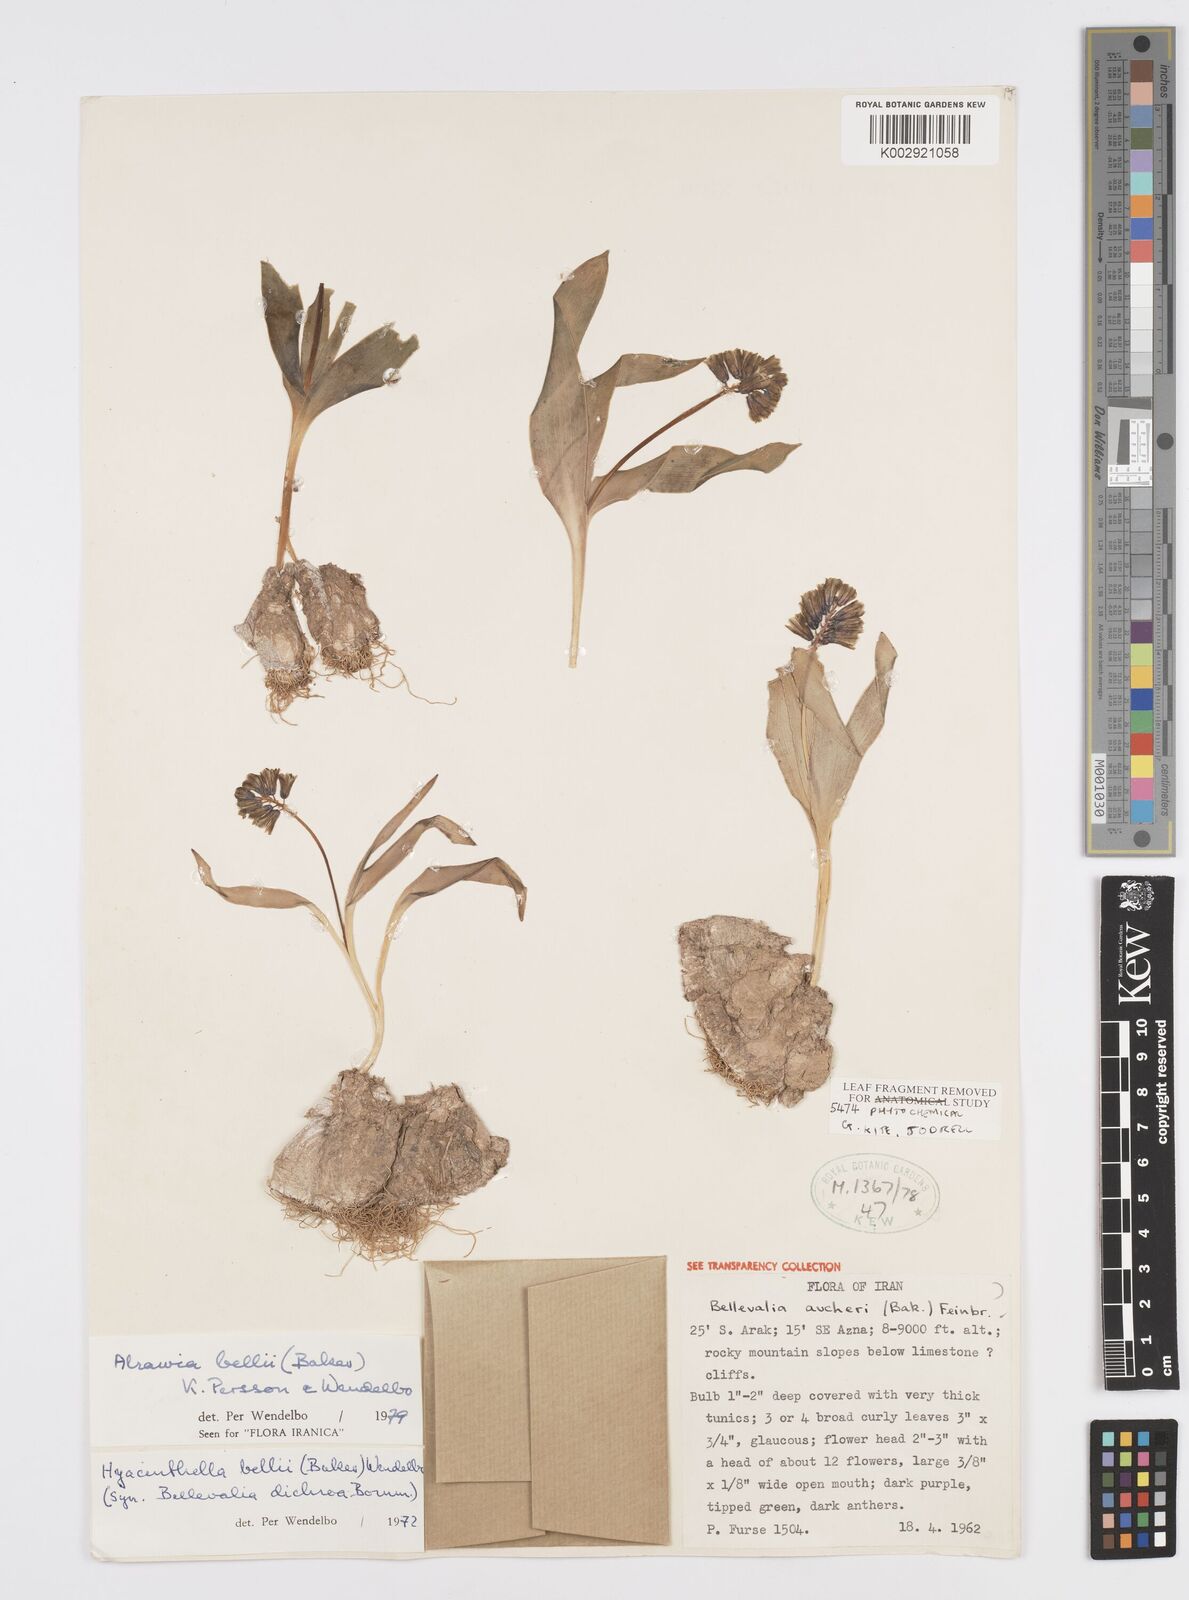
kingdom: Plantae
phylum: Tracheophyta
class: Liliopsida
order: Asparagales
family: Asparagaceae
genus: Alrawia
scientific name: Alrawia bellii
